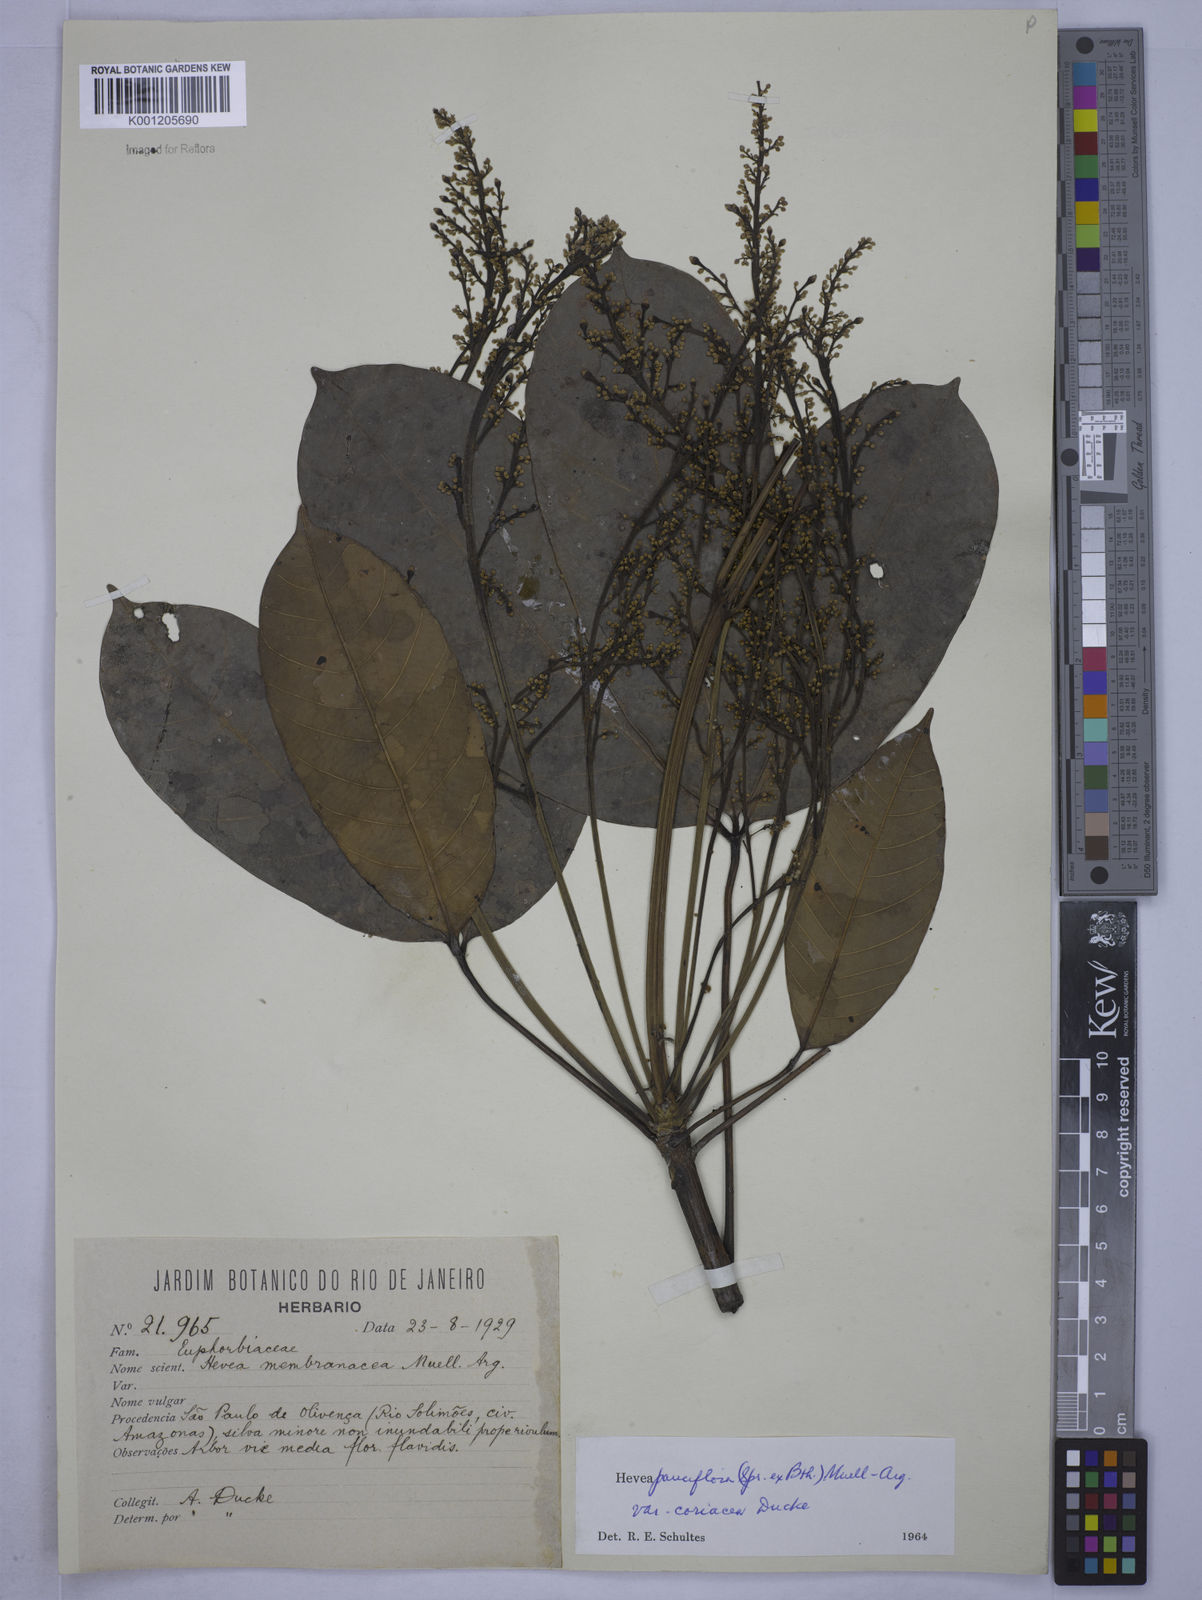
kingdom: Plantae
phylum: Tracheophyta
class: Magnoliopsida
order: Malpighiales
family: Euphorbiaceae
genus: Hevea
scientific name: Hevea pauciflora
